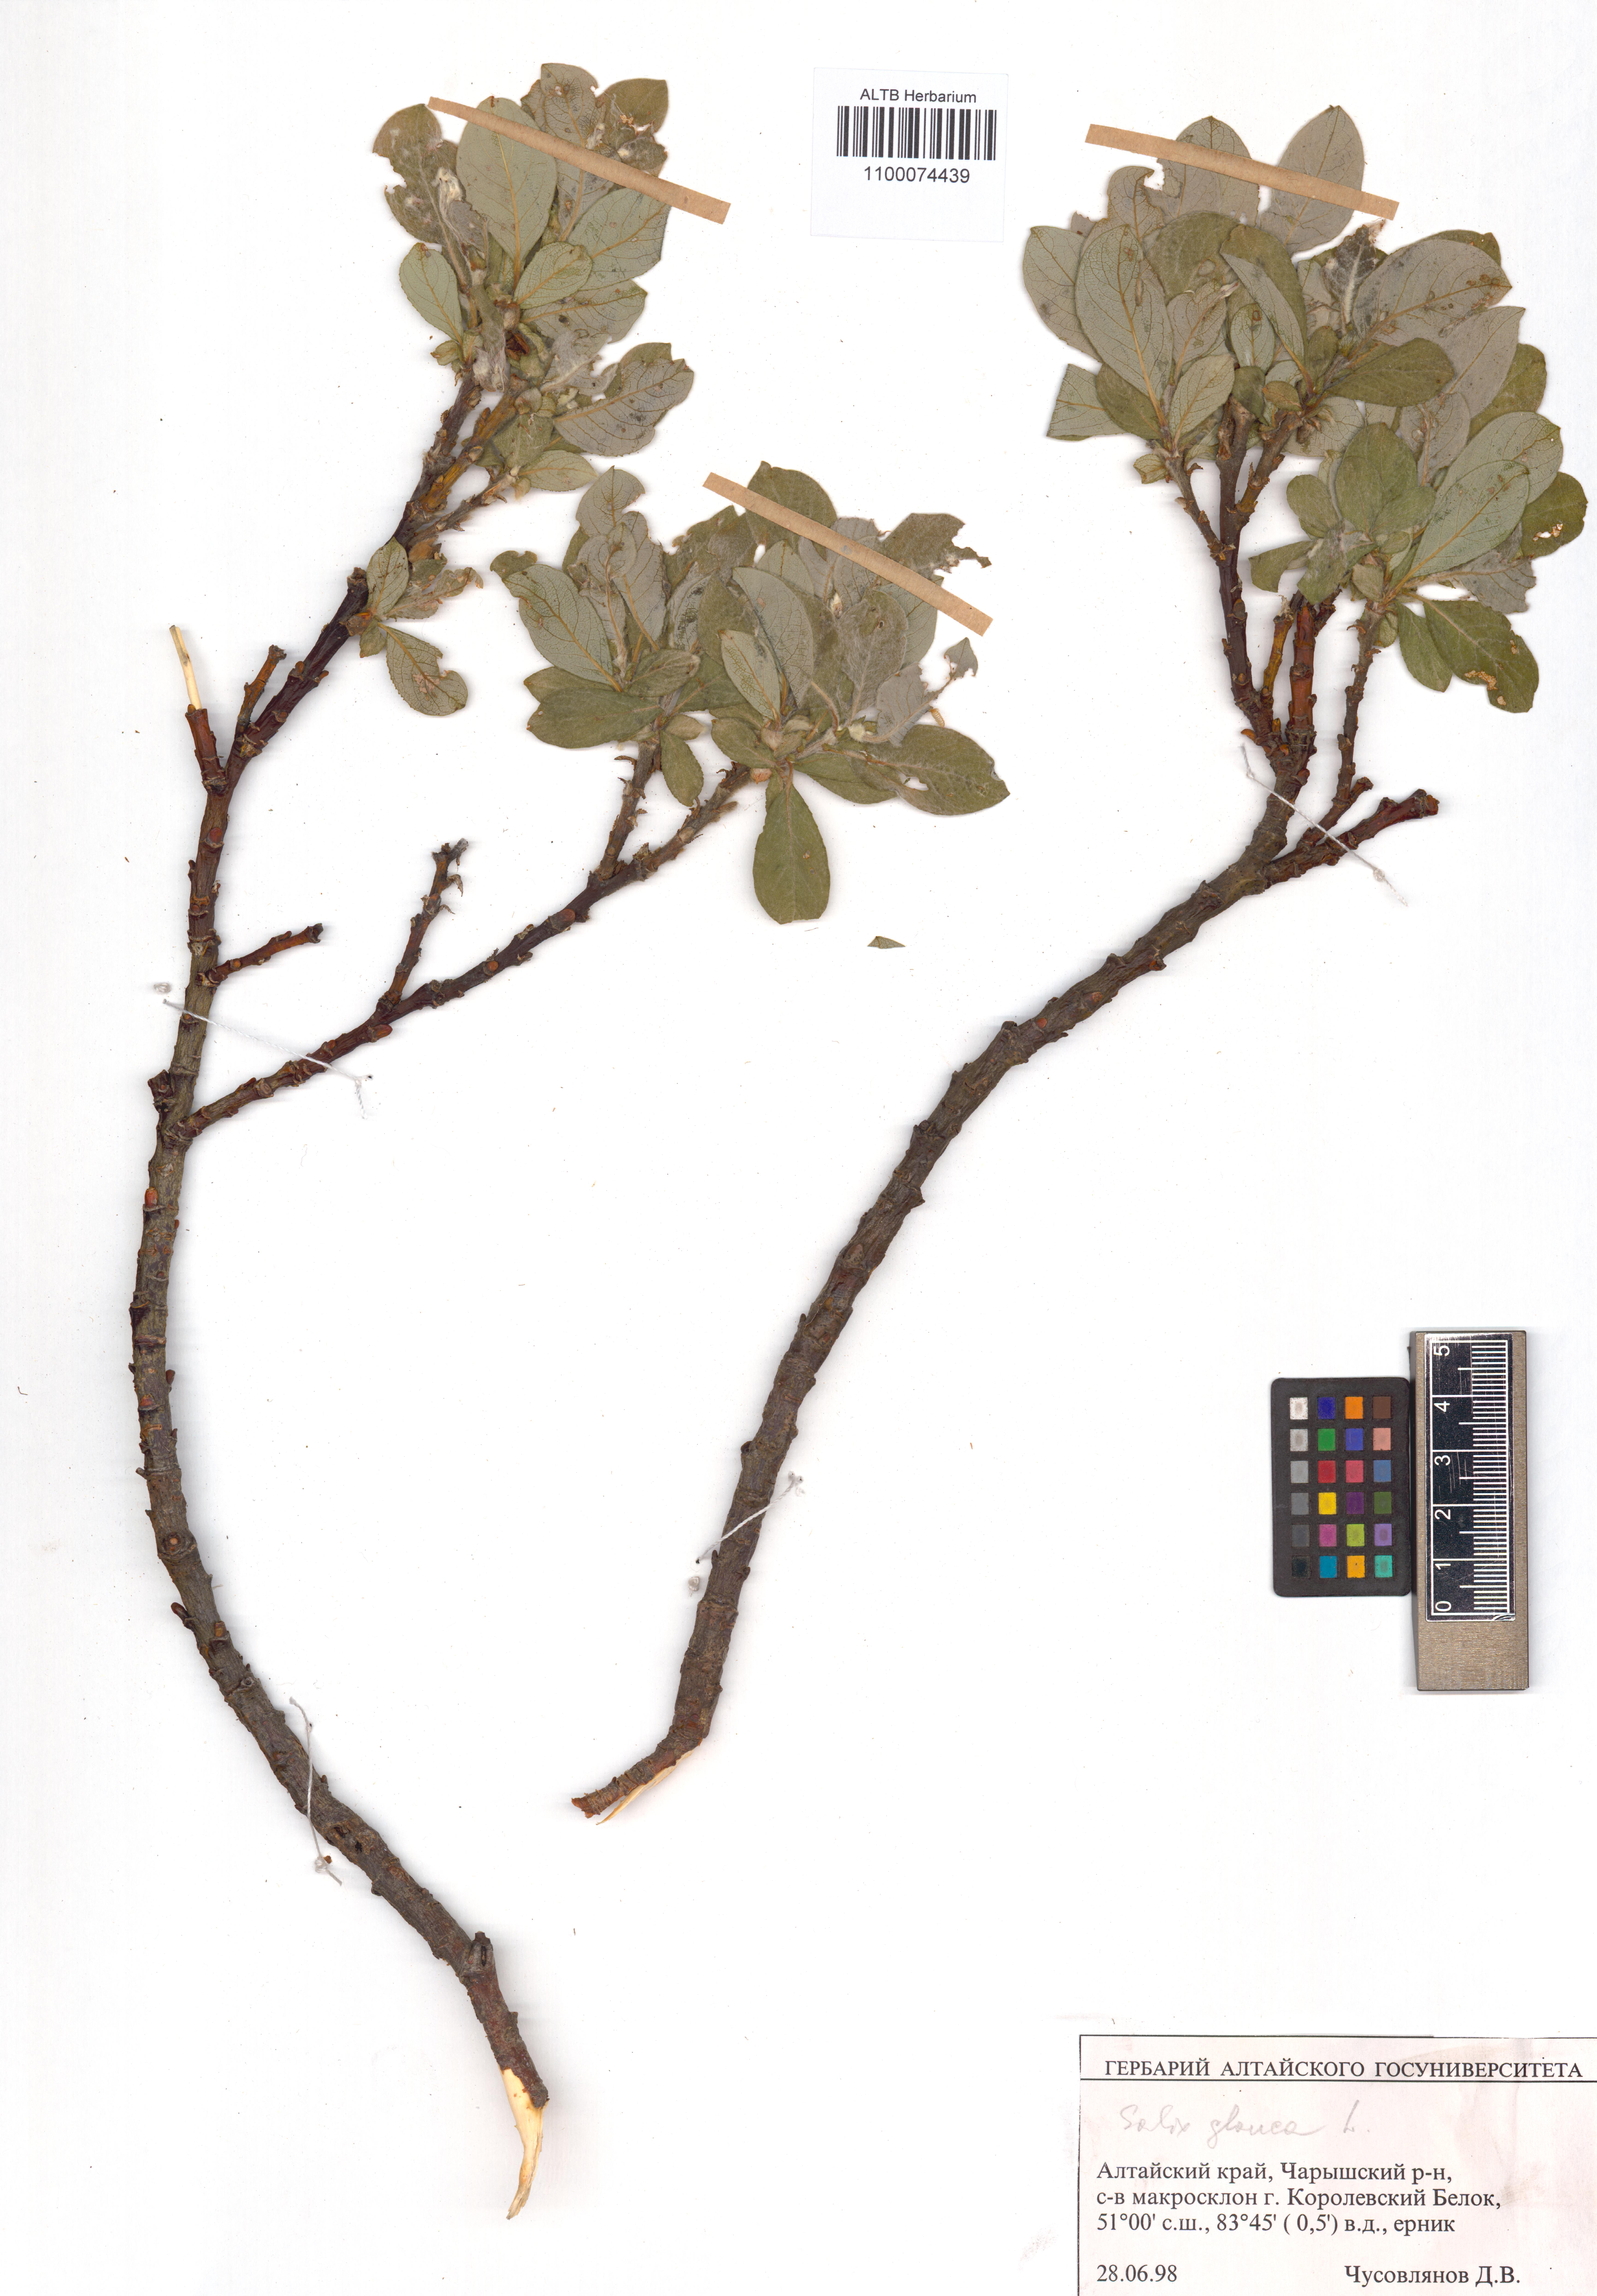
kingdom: Plantae
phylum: Tracheophyta
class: Magnoliopsida
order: Malpighiales
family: Salicaceae
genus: Salix
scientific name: Salix glauca
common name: Glaucous willow
